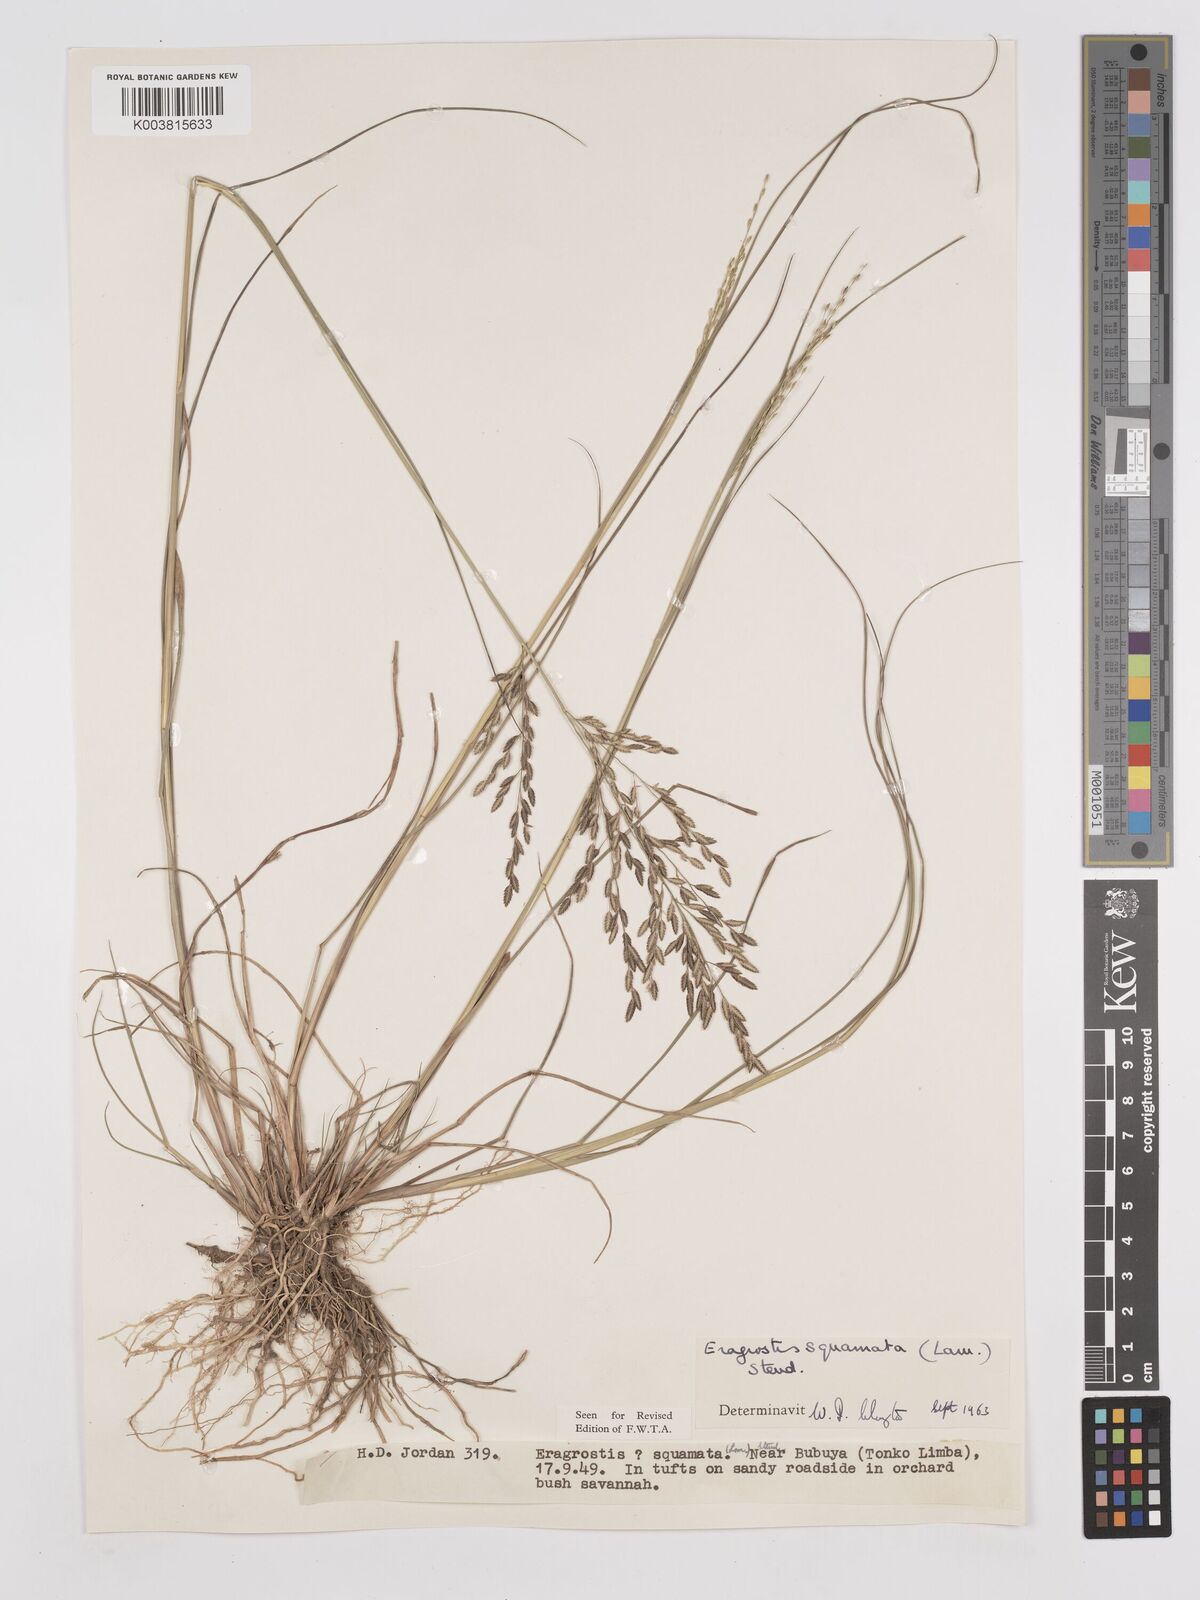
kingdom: Plantae
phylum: Tracheophyta
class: Liliopsida
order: Poales
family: Poaceae
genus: Eragrostis
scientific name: Eragrostis squamata
